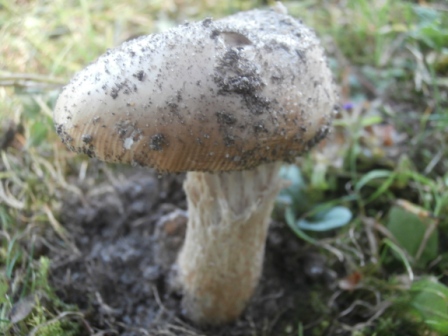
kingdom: Fungi
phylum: Basidiomycota
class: Agaricomycetes
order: Agaricales
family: Amanitaceae
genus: Amanita
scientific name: Amanita lividopallescens
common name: afblegende kam-fluesvamp
